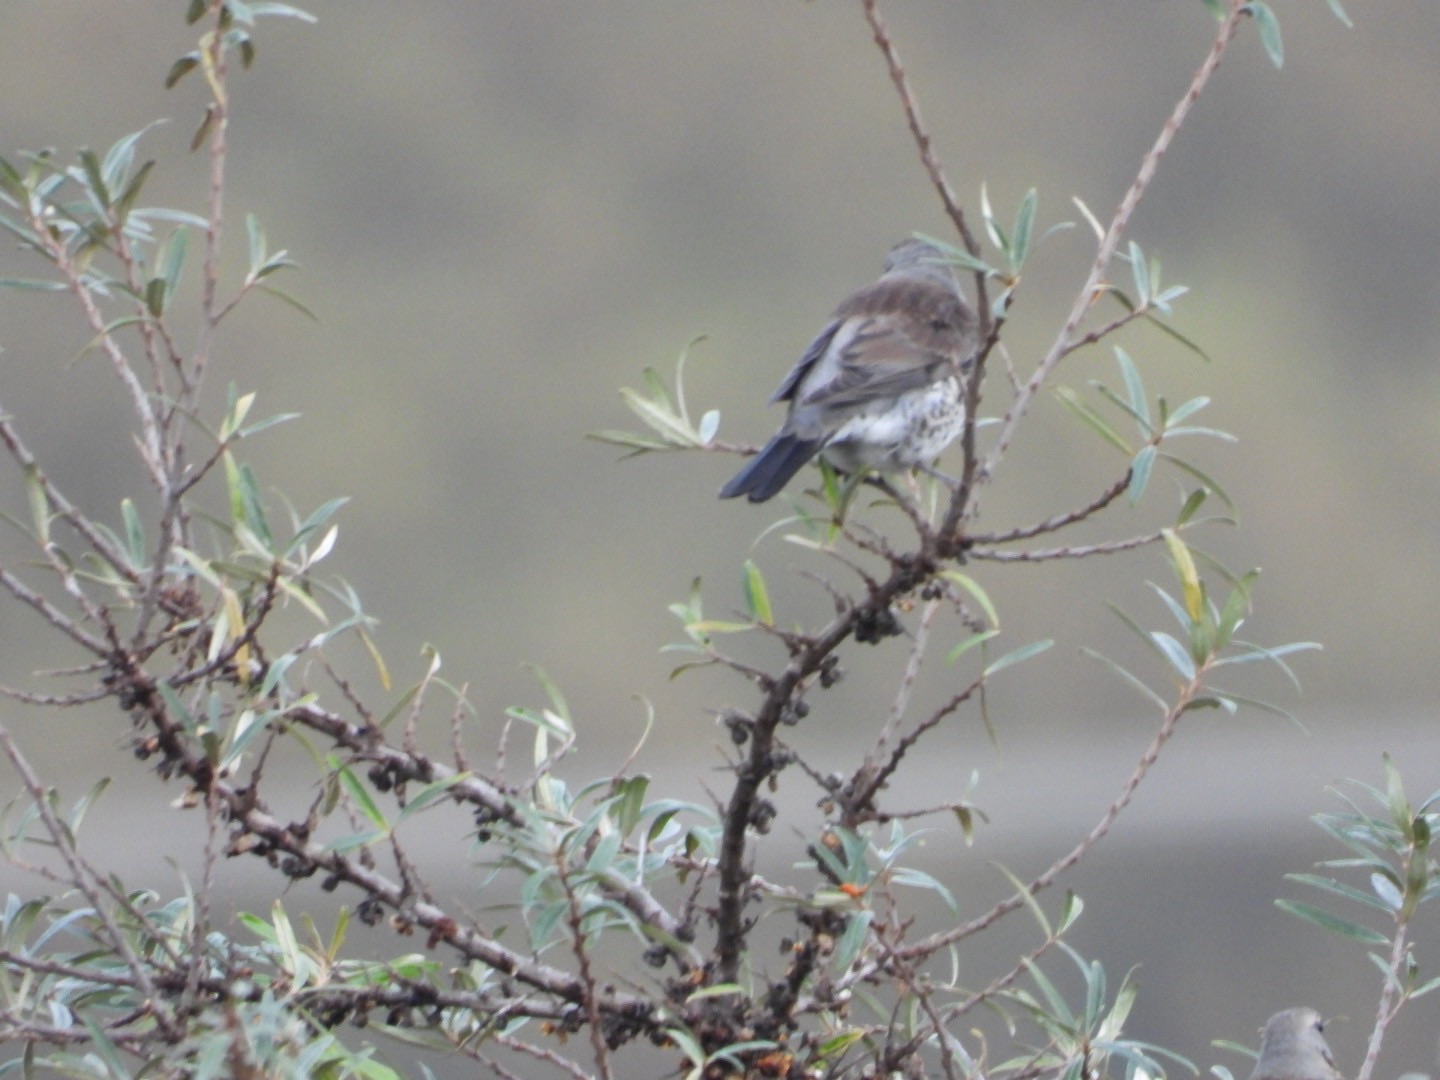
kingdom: Animalia
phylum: Chordata
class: Aves
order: Passeriformes
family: Turdidae
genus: Turdus
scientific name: Turdus pilaris
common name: Sjagger
